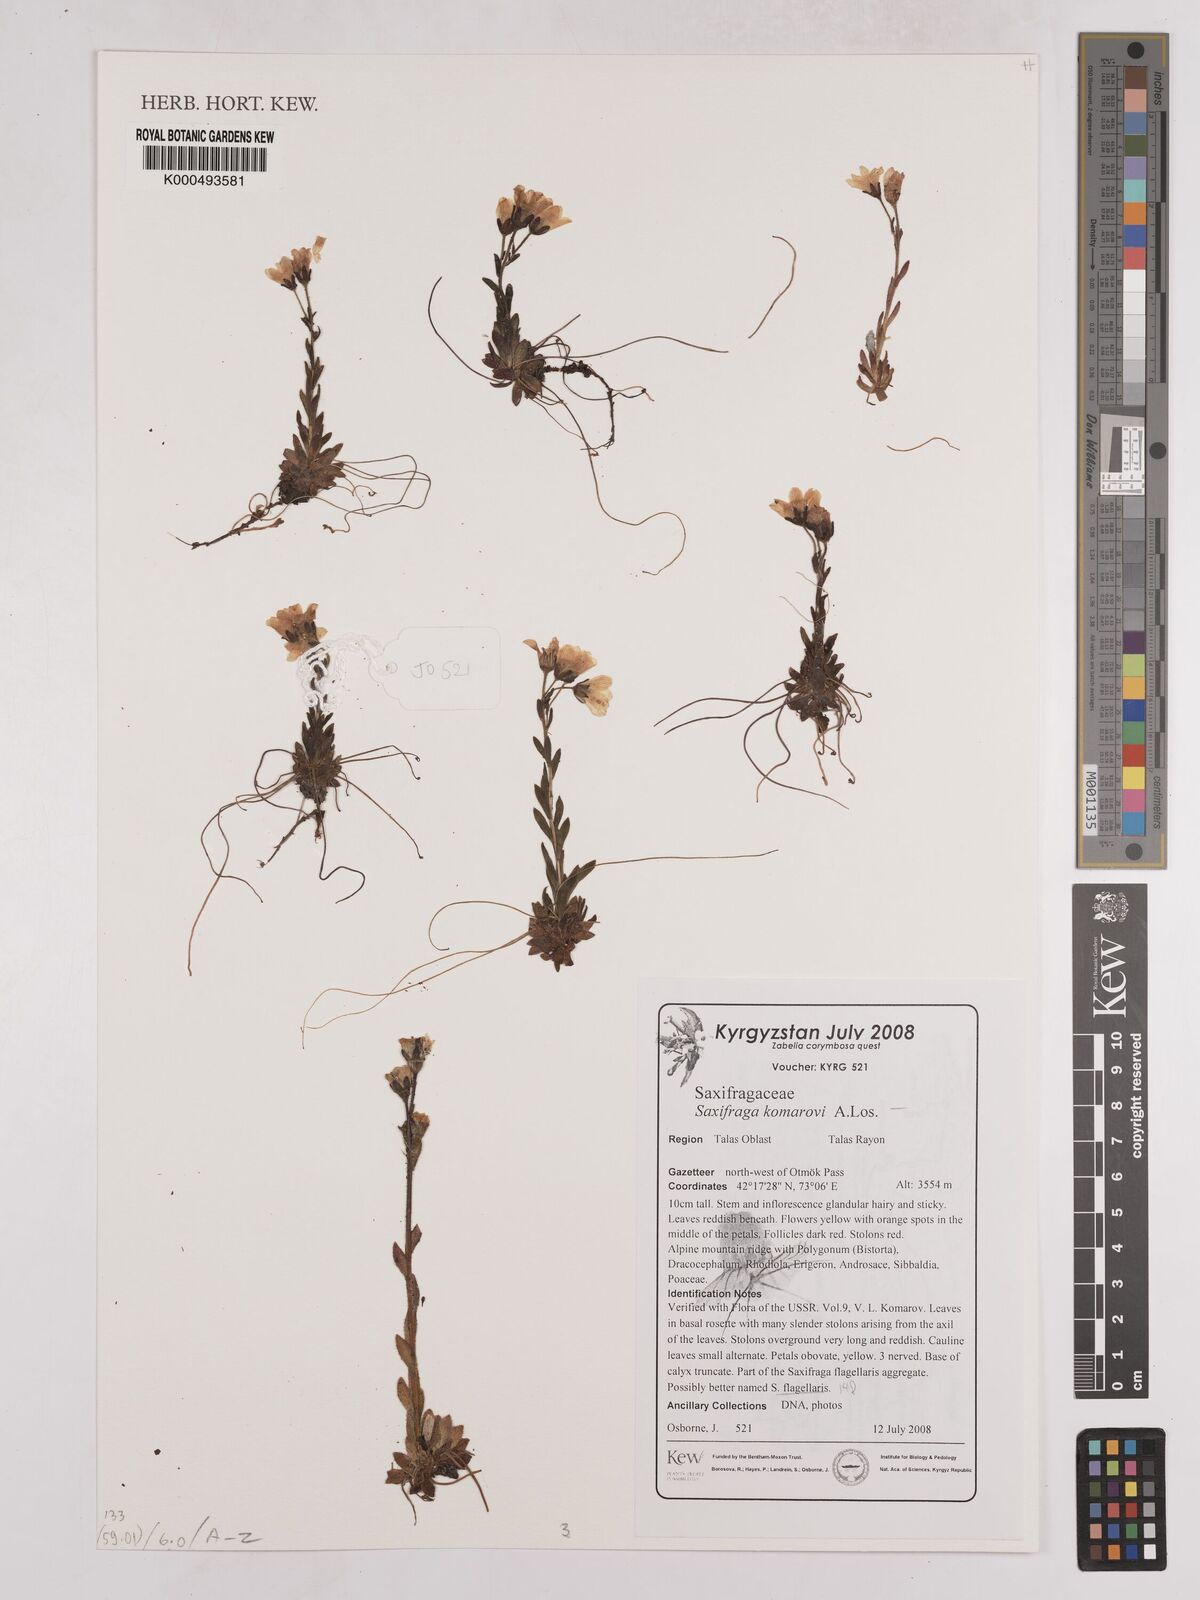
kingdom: Plantae
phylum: Tracheophyta
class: Magnoliopsida
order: Saxifragales
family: Saxifragaceae
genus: Saxifraga
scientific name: Saxifraga komarovii
